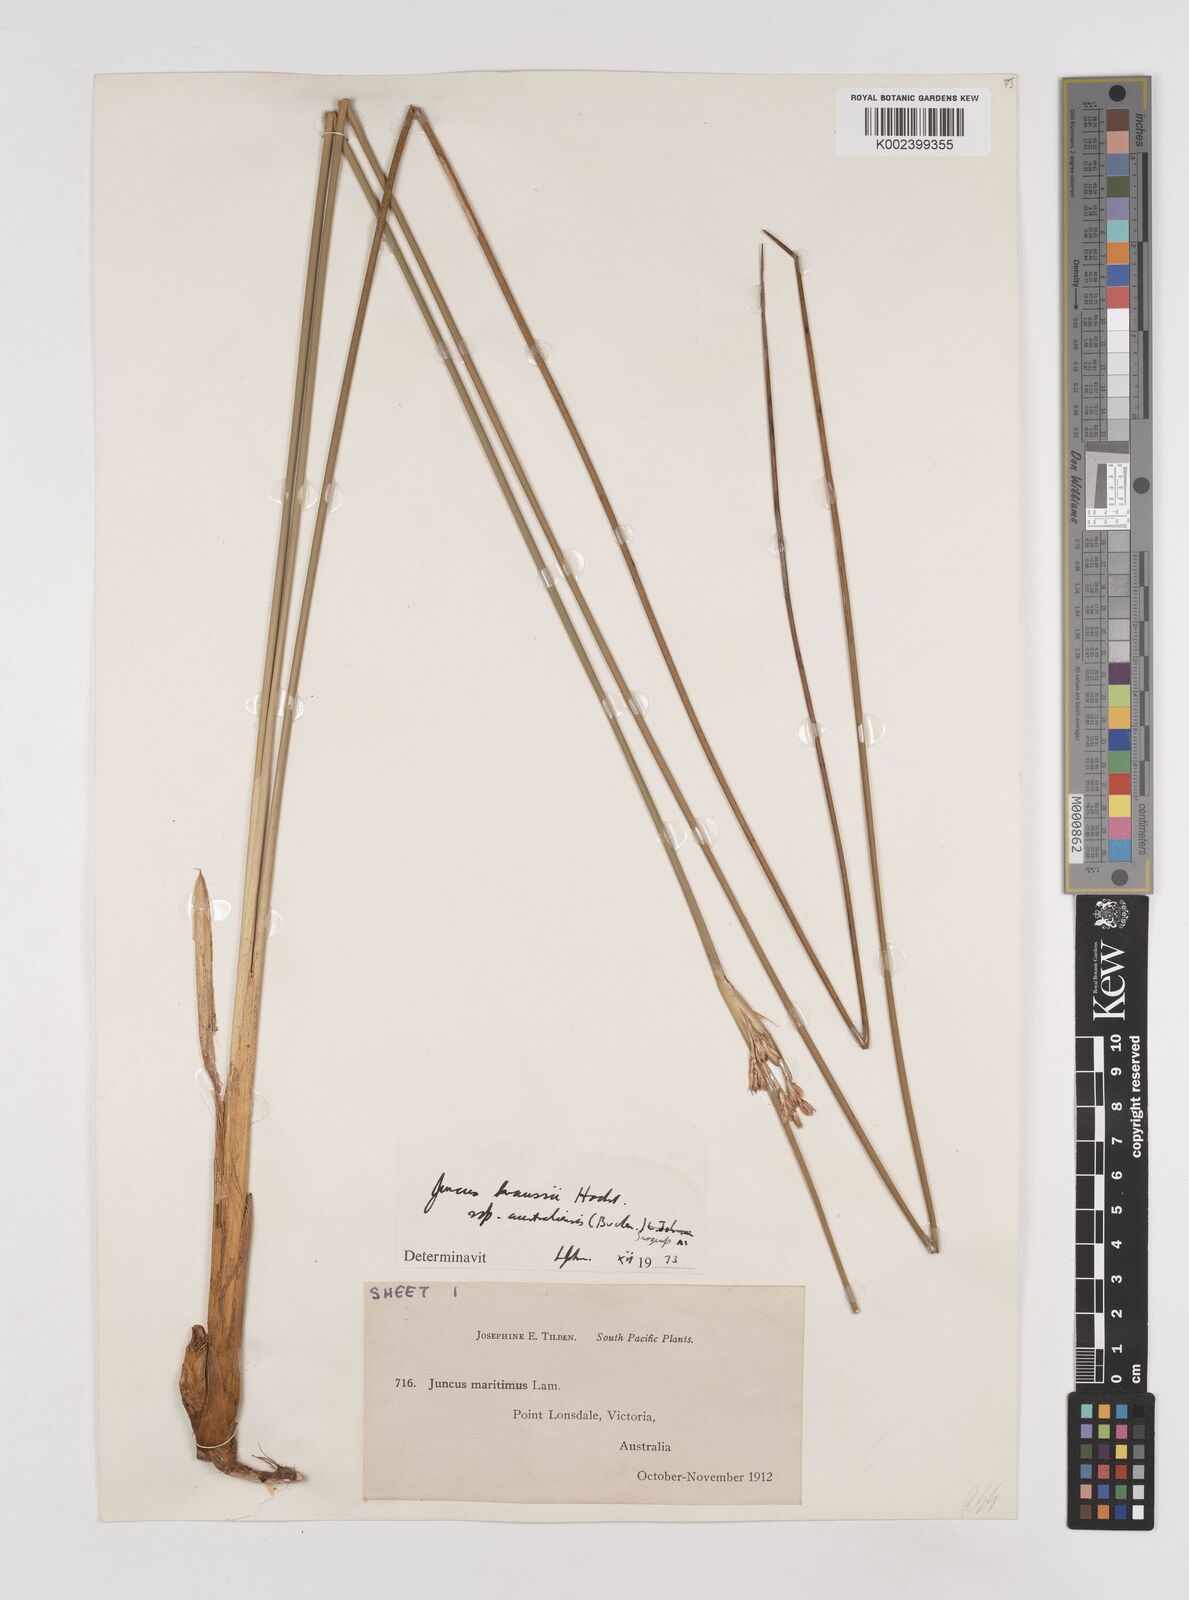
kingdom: Plantae
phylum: Tracheophyta
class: Liliopsida
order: Poales
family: Juncaceae
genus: Juncus
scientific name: Juncus kraussii
